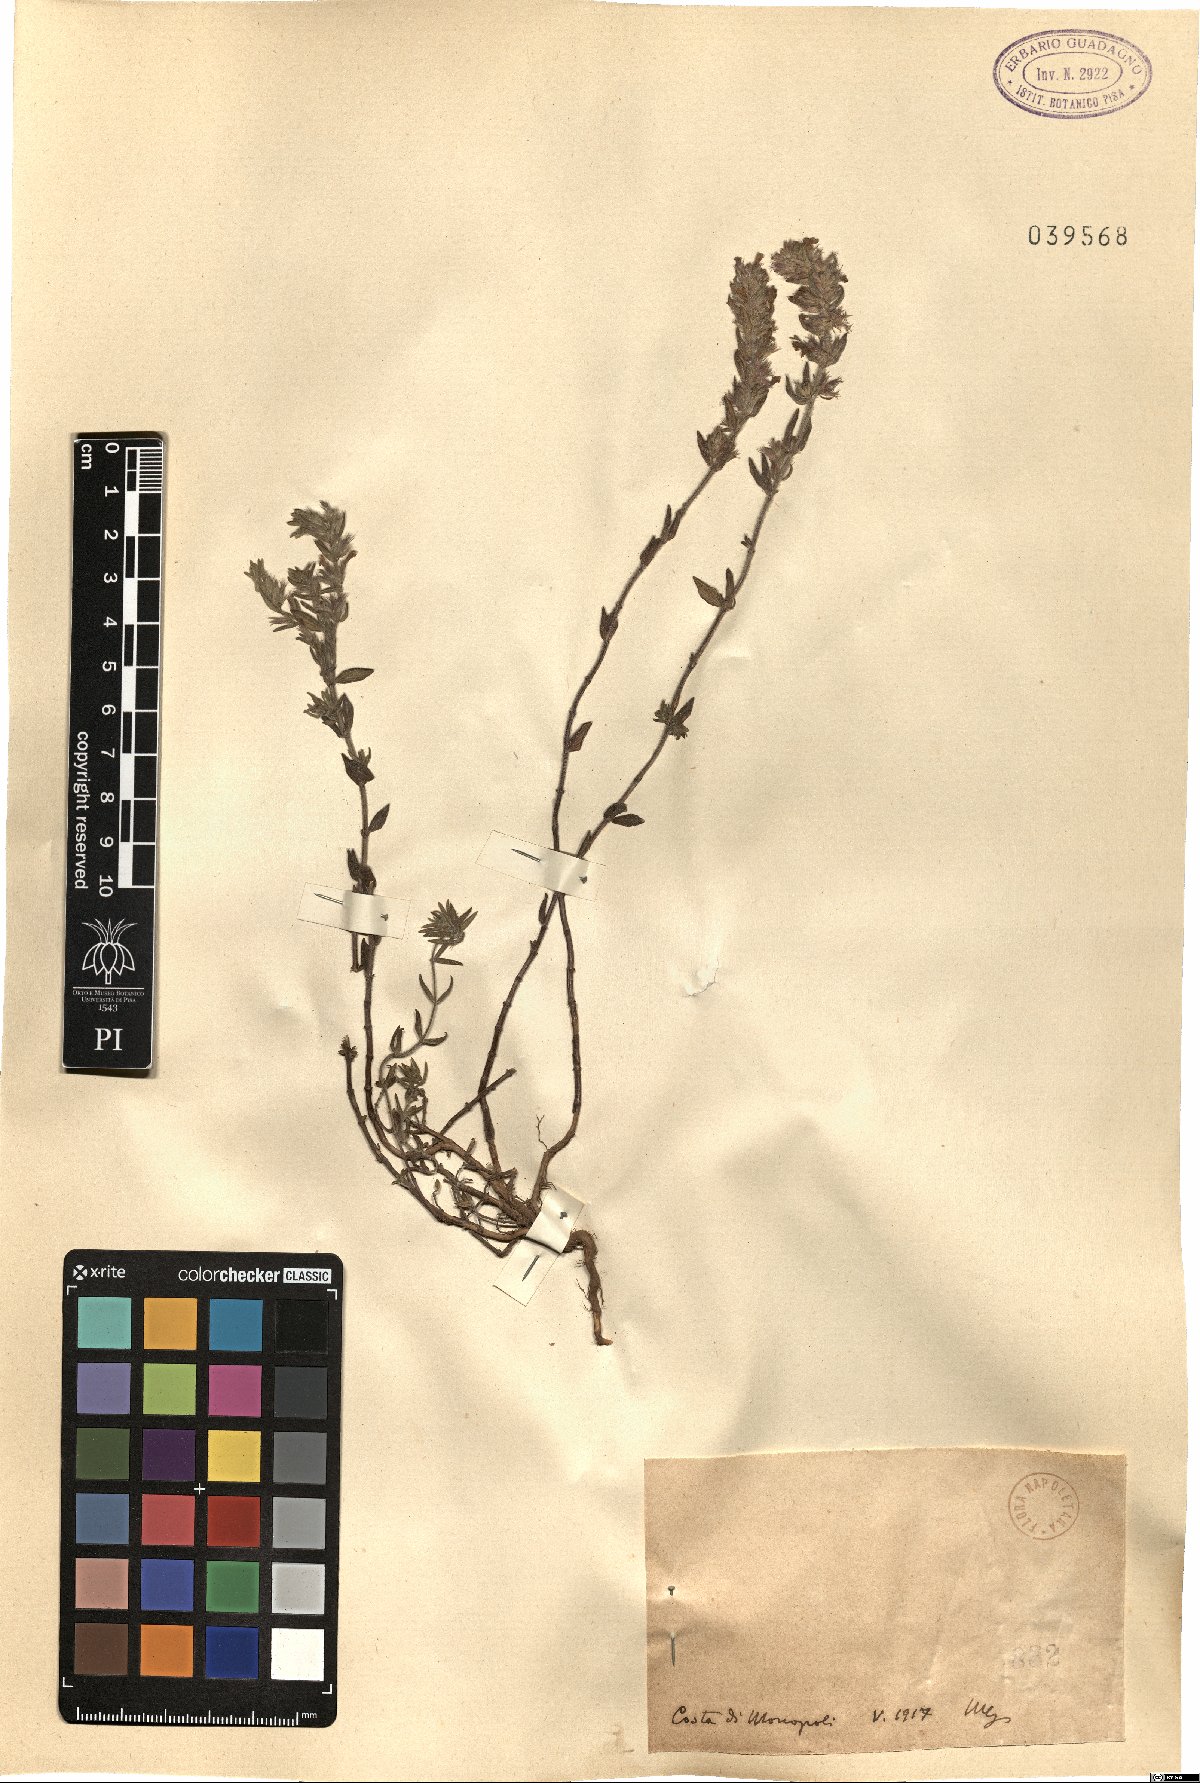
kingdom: Plantae
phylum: Tracheophyta
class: Magnoliopsida
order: Lamiales
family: Lamiaceae
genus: Micromeria
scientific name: Micromeria
